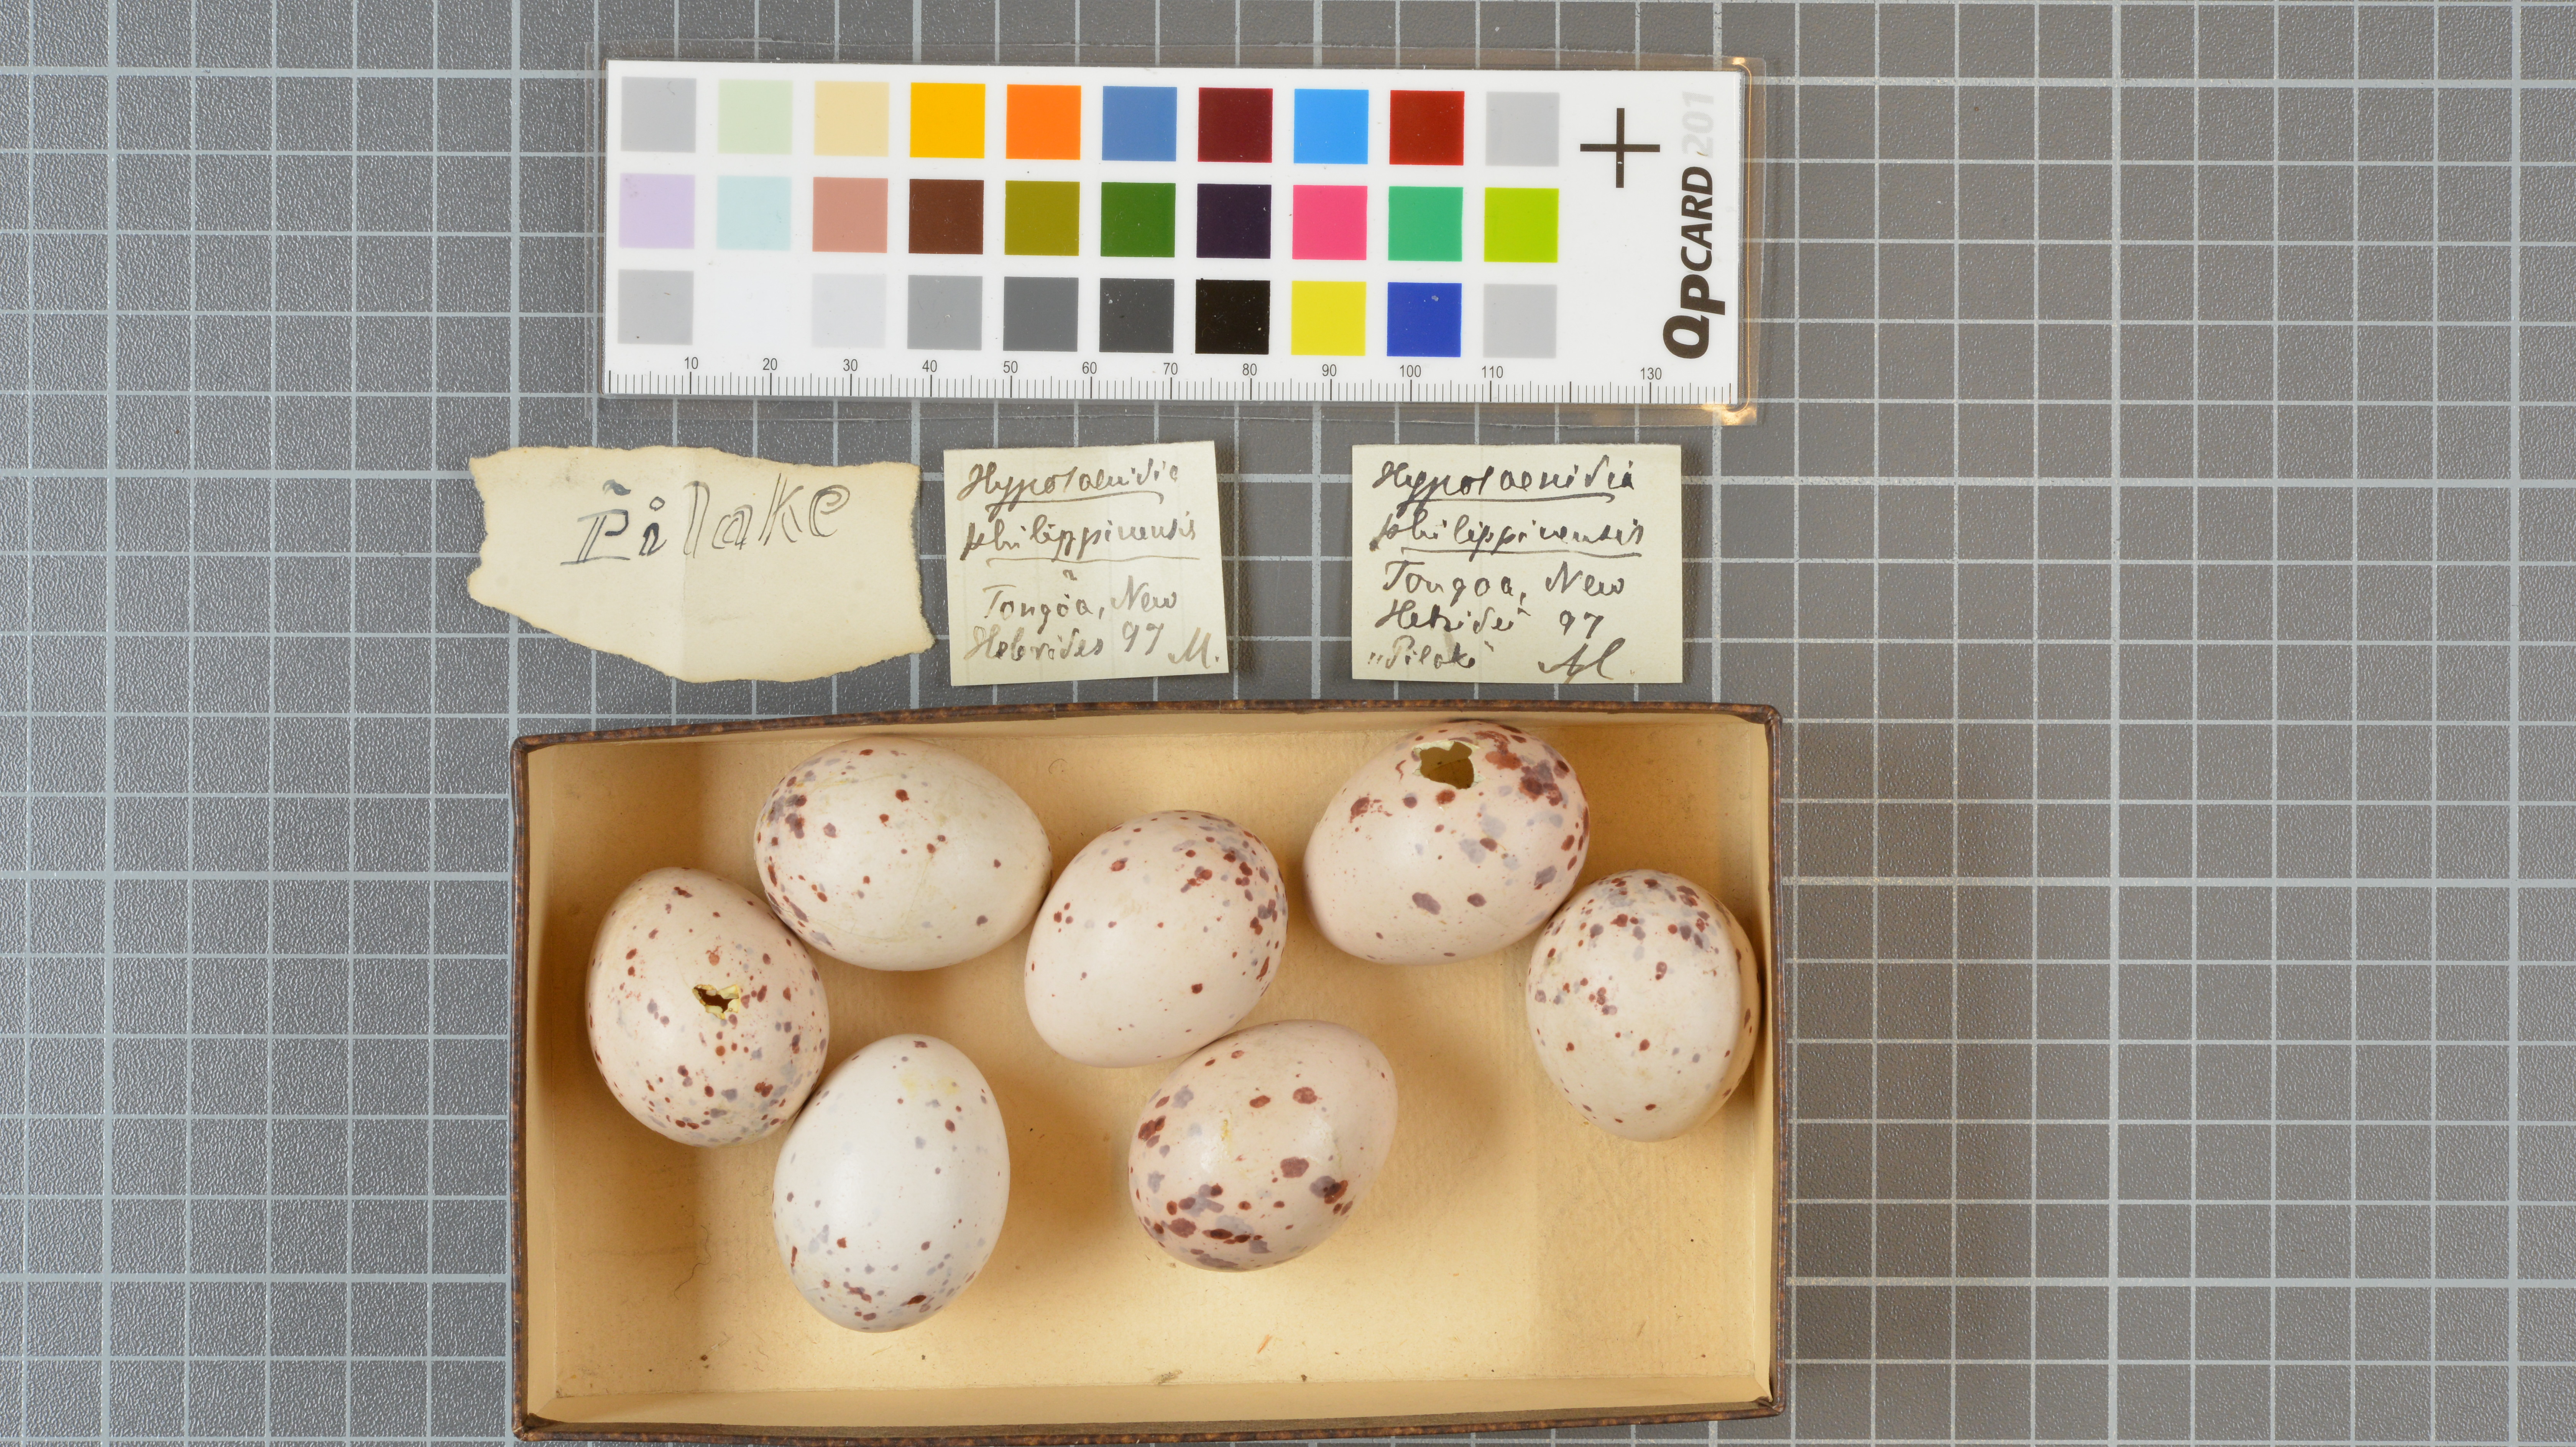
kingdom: Animalia
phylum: Chordata
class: Aves
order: Gruiformes
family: Rallidae
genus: Gallirallus
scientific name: Gallirallus philippensis
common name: Buff-banded rail
